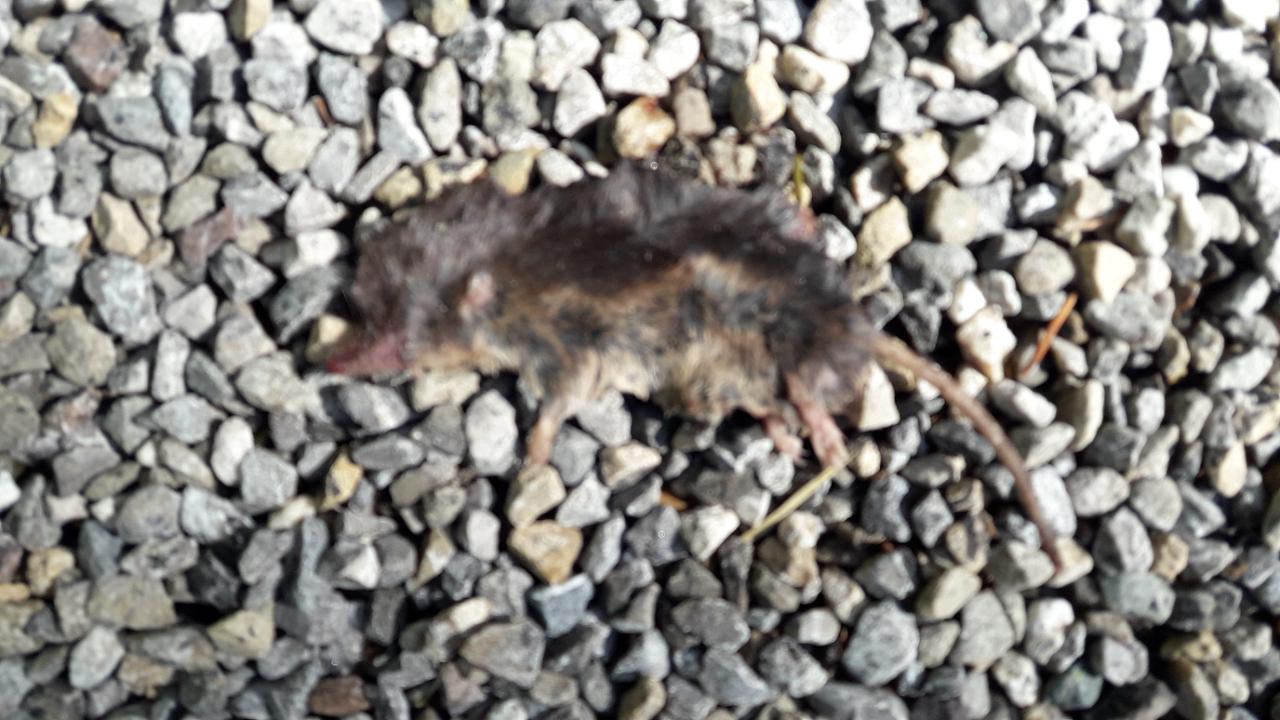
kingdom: Animalia
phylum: Chordata
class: Mammalia
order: Soricomorpha
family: Soricidae
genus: Sorex
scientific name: Sorex araneus
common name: Common shrew
